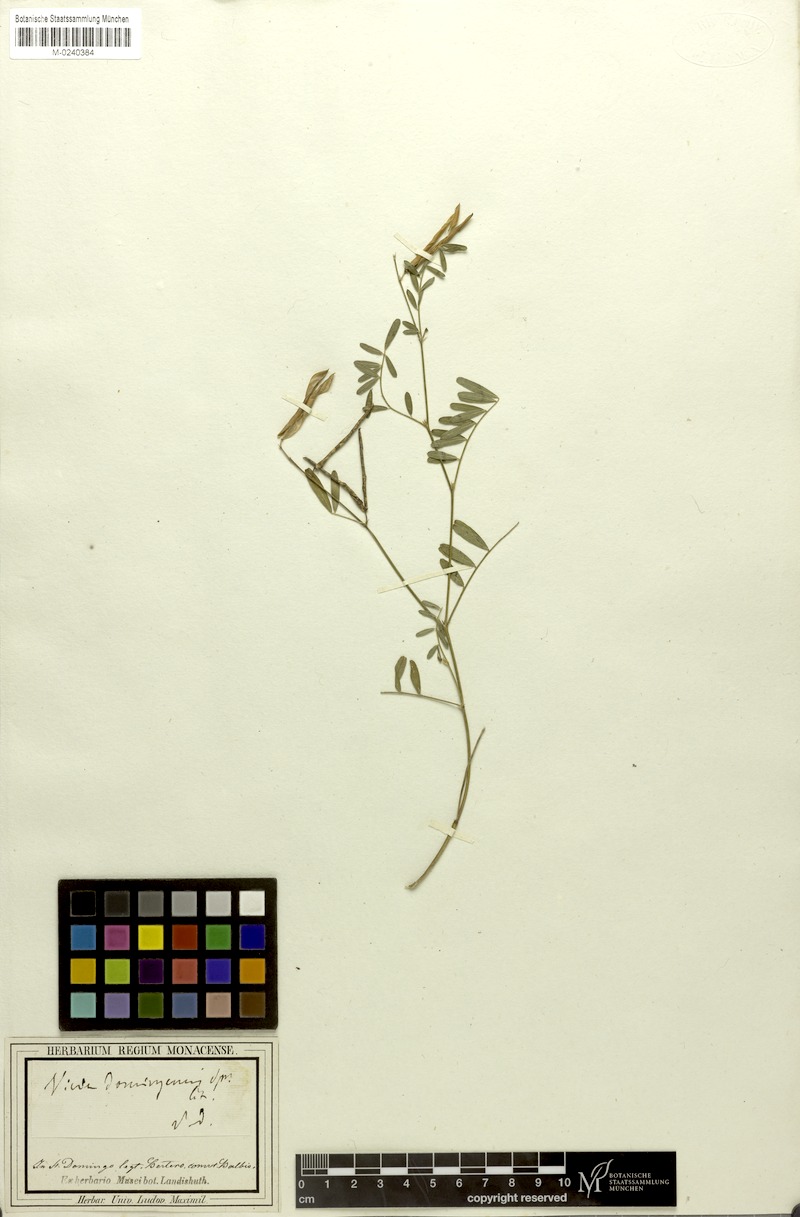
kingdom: Plantae
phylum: Tracheophyta
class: Magnoliopsida
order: Fabales
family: Fabaceae
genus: Vicia
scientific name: Vicia
